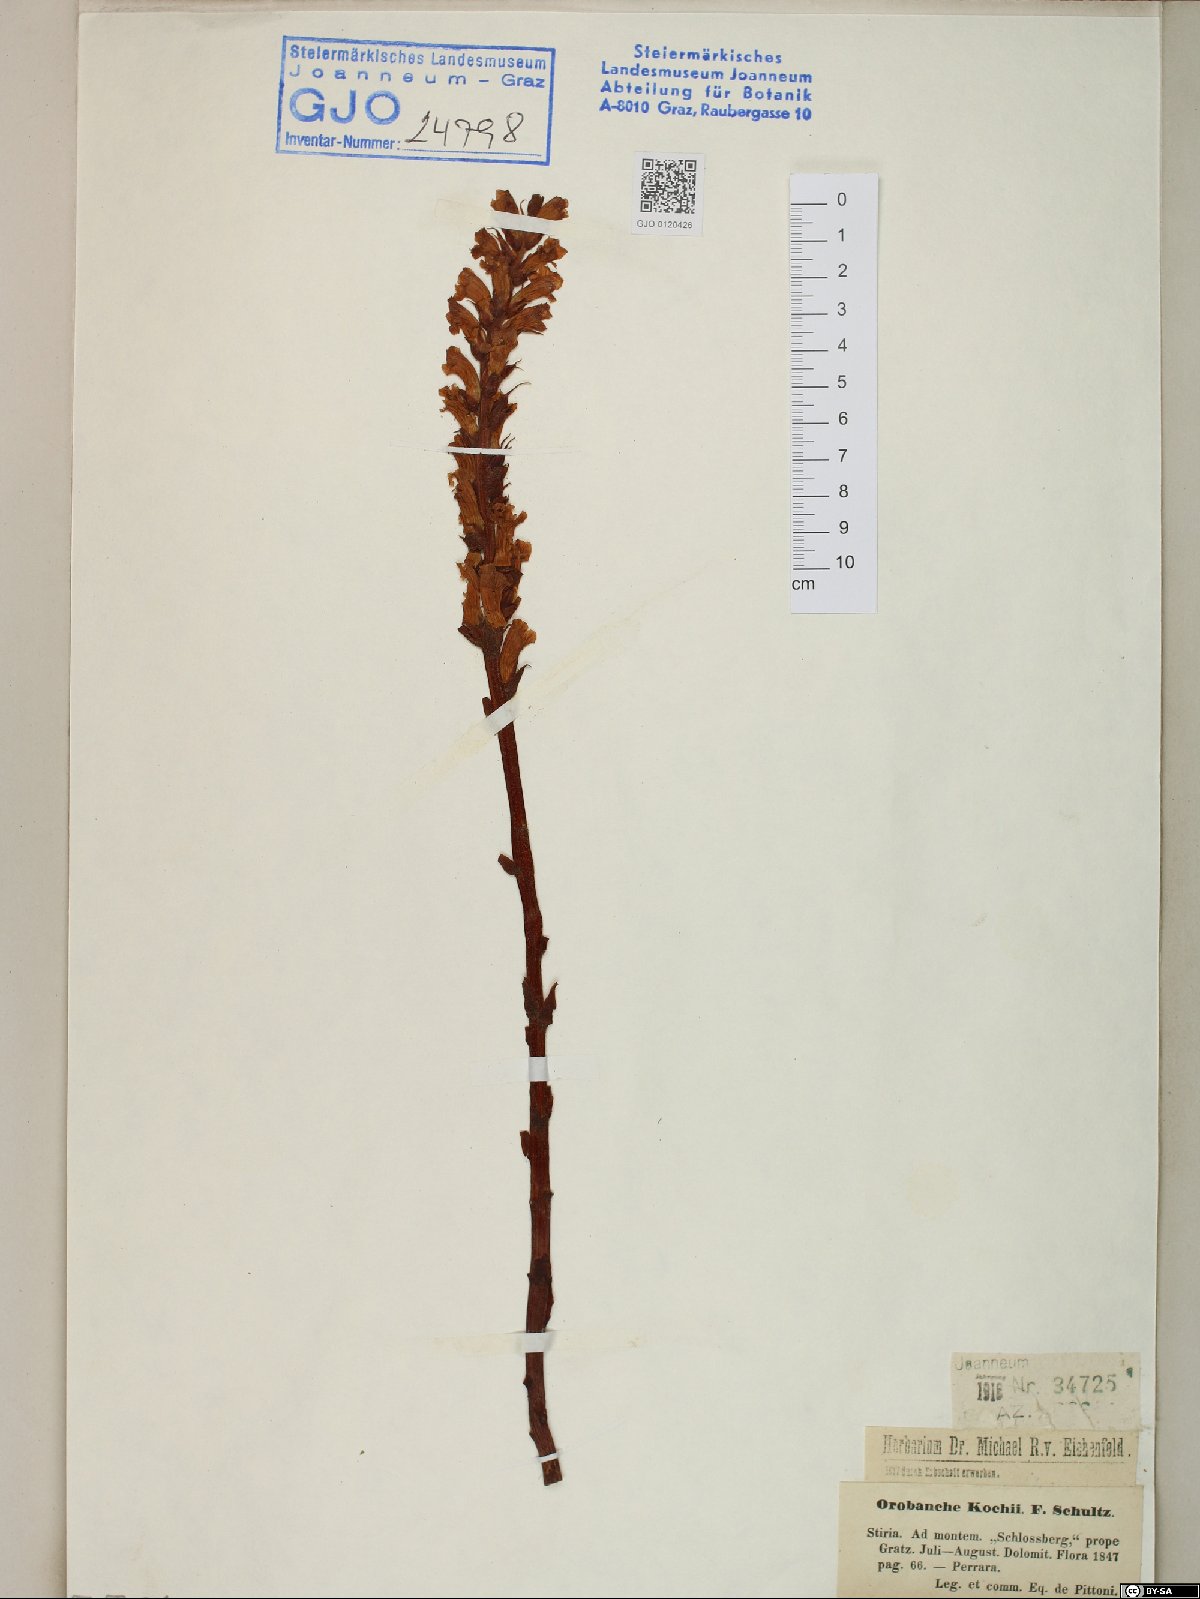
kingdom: Plantae
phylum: Tracheophyta
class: Magnoliopsida
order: Lamiales
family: Orobanchaceae
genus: Orobanche
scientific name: Orobanche centaurina
